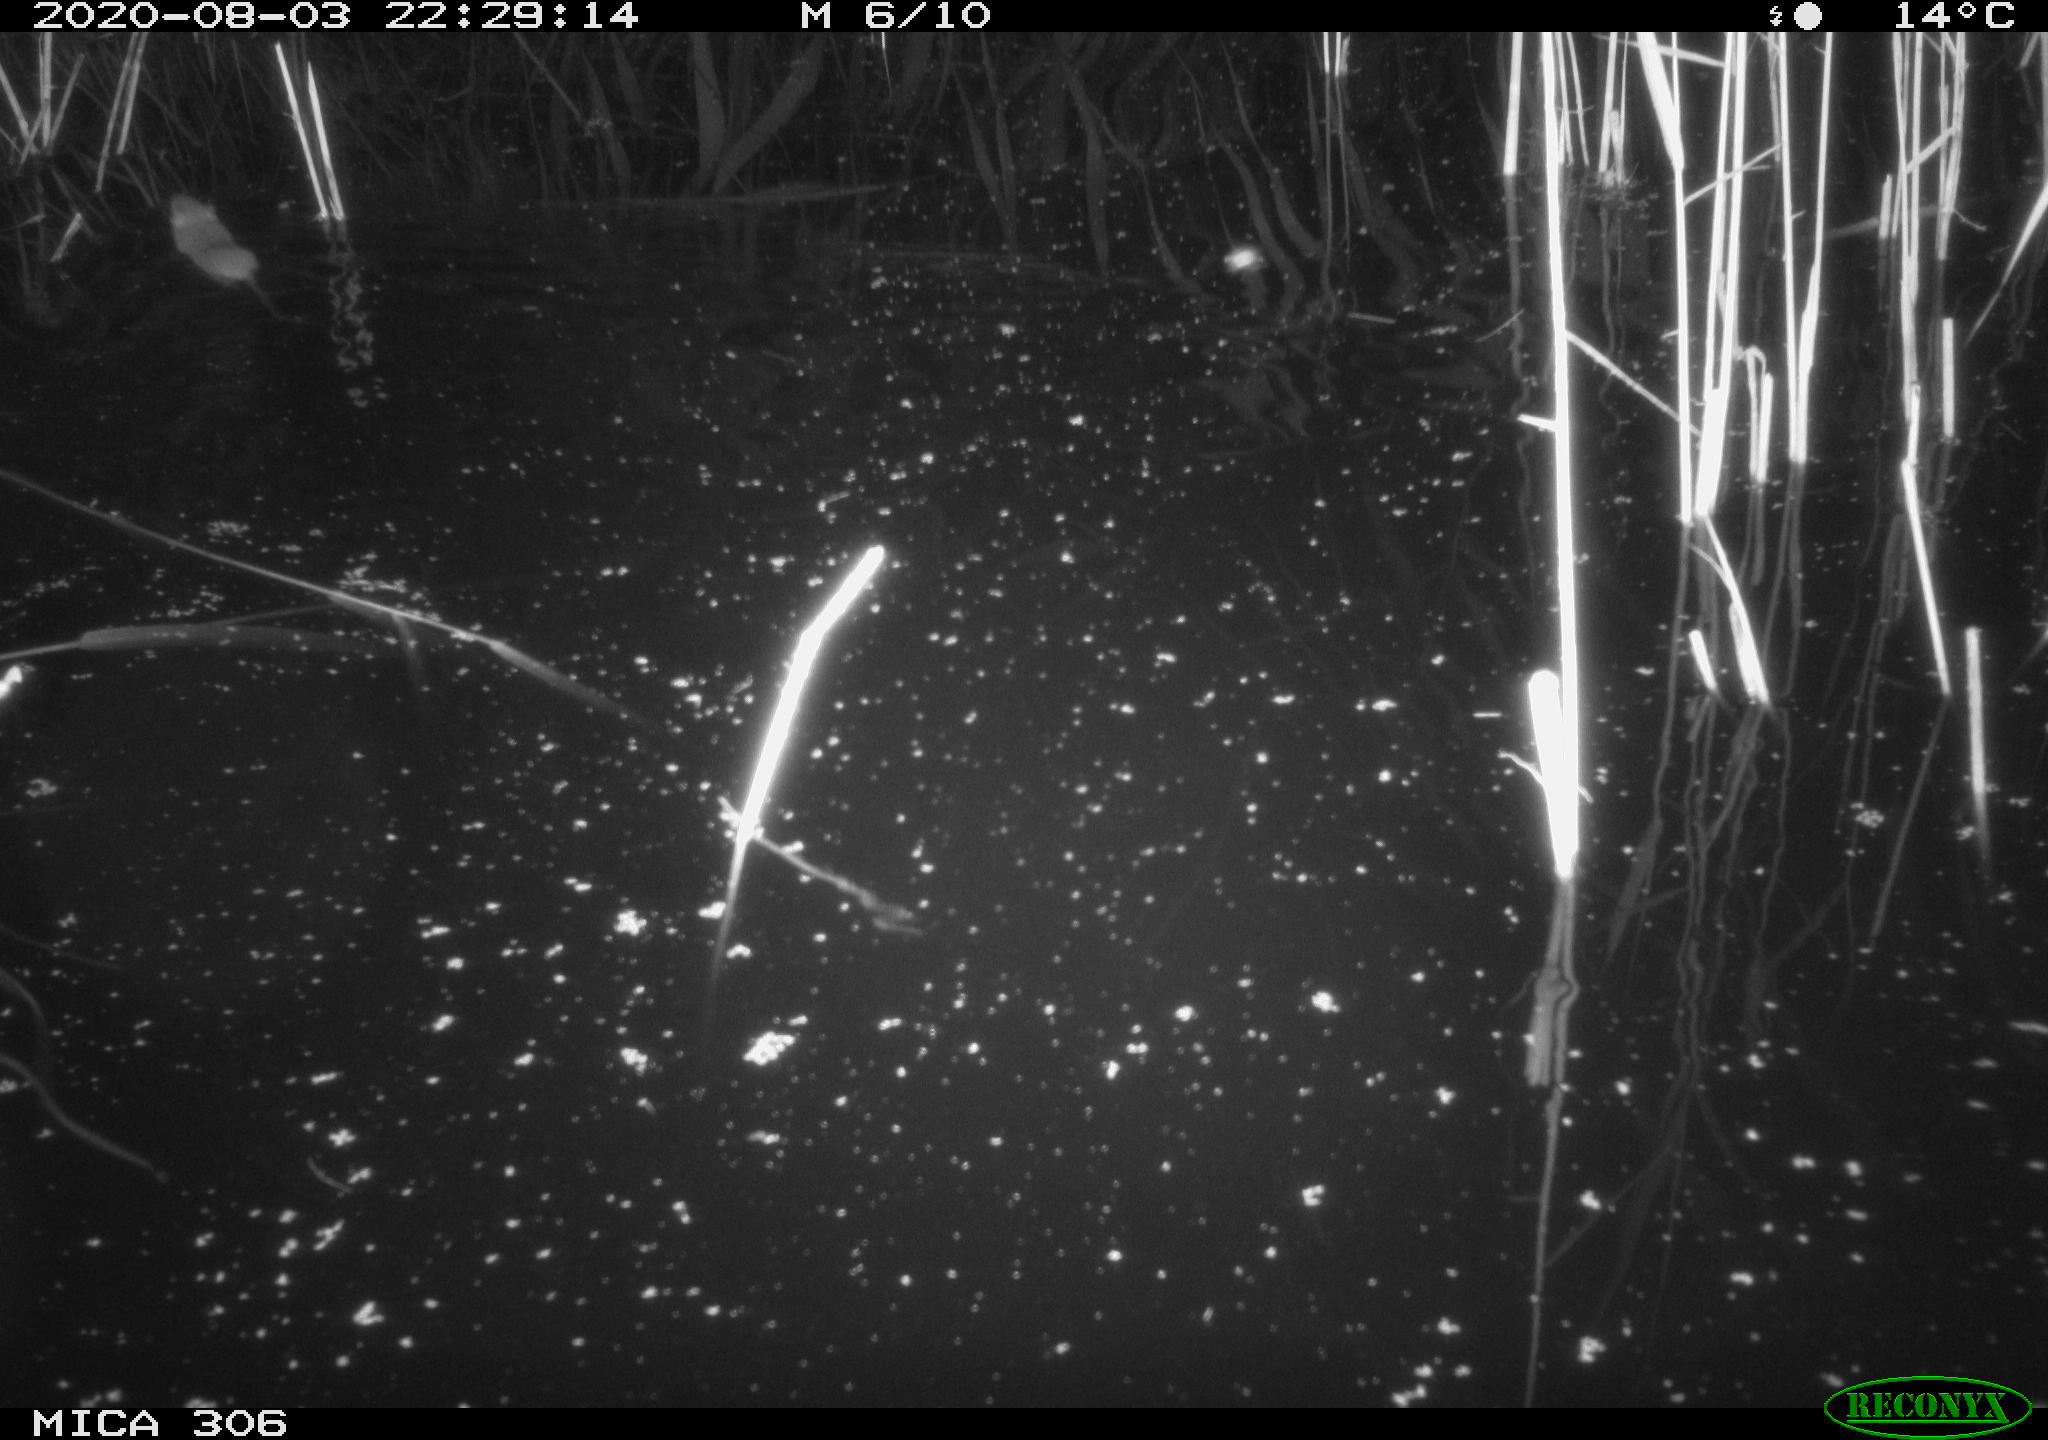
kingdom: Animalia
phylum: Chordata
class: Mammalia
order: Rodentia
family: Muridae
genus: Rattus
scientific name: Rattus norvegicus
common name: Brown rat
